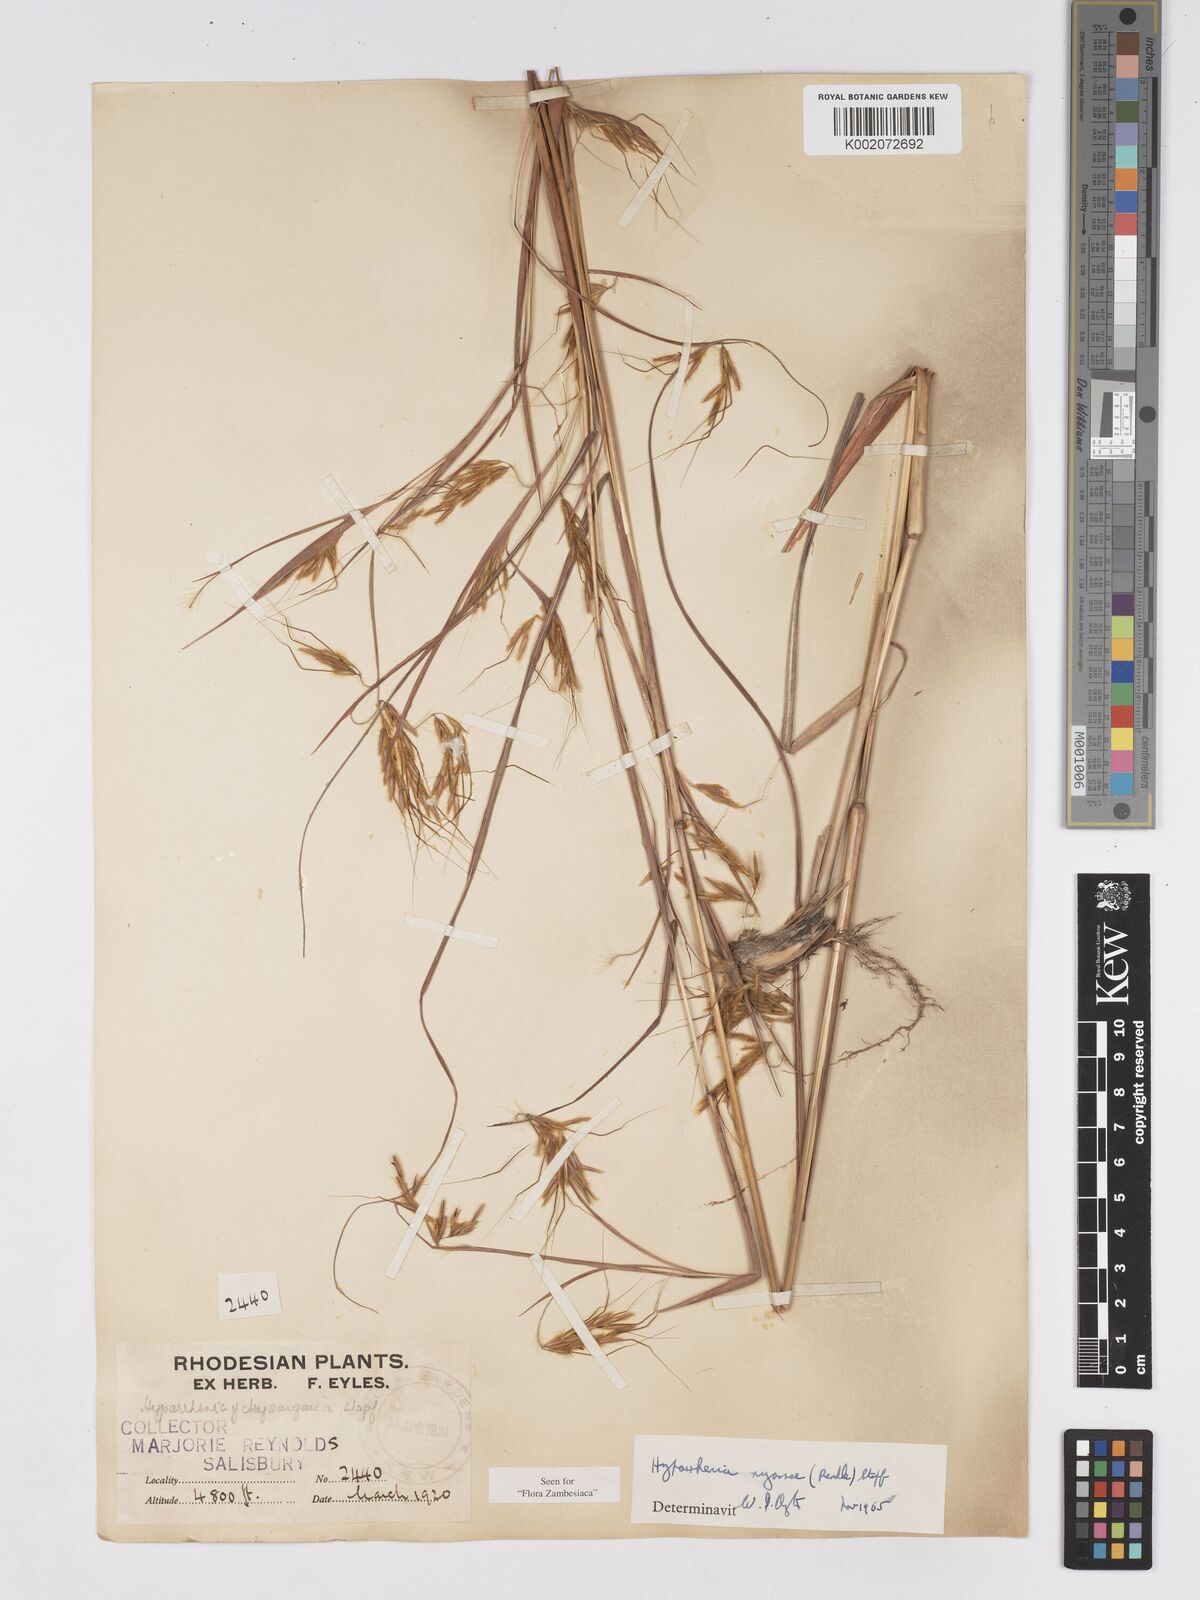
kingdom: Plantae
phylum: Tracheophyta
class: Liliopsida
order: Poales
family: Poaceae
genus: Hyparrhenia
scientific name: Hyparrhenia nyassae
